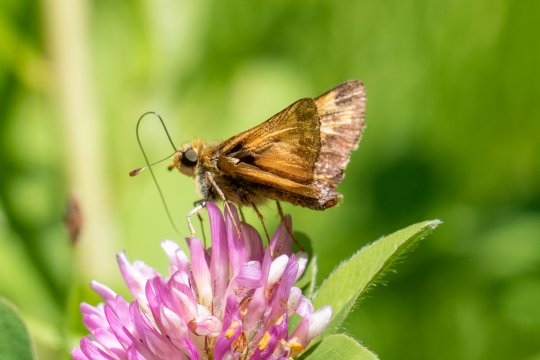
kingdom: Animalia
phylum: Arthropoda
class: Insecta
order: Lepidoptera
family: Hesperiidae
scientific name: Hesperiidae
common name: Skippers
